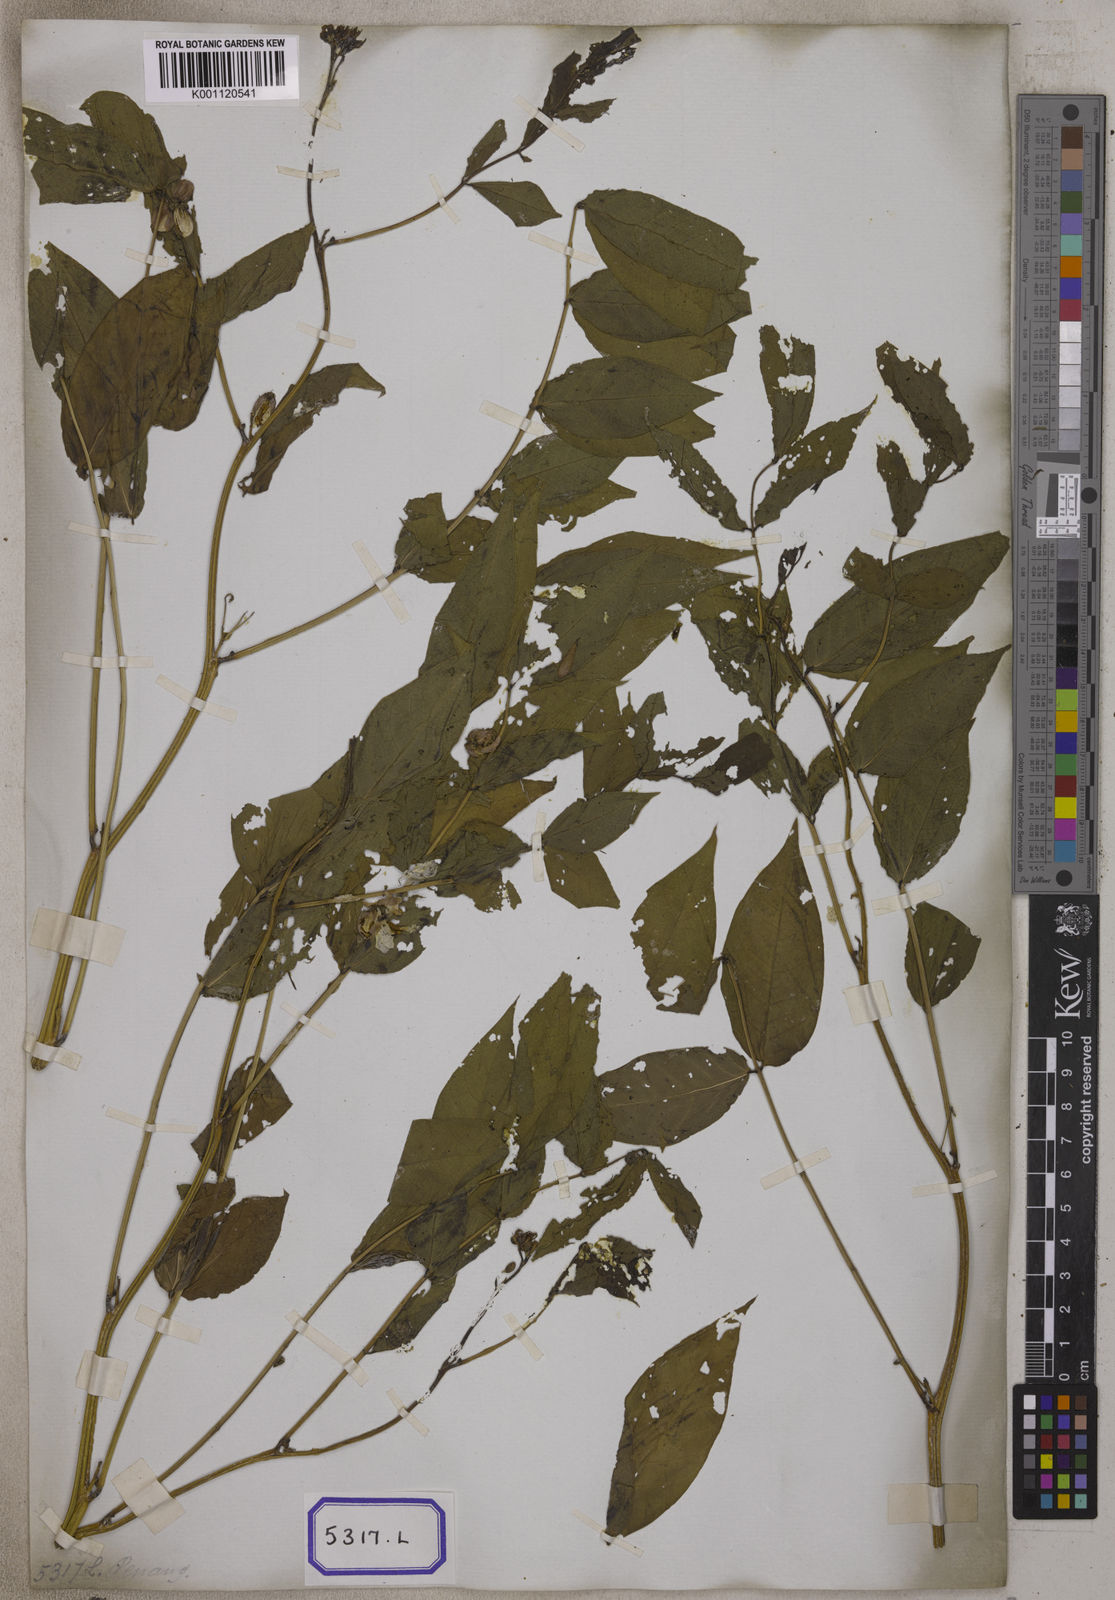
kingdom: Plantae
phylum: Tracheophyta
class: Magnoliopsida
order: Fabales
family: Fabaceae
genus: Cassia
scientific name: Cassia
